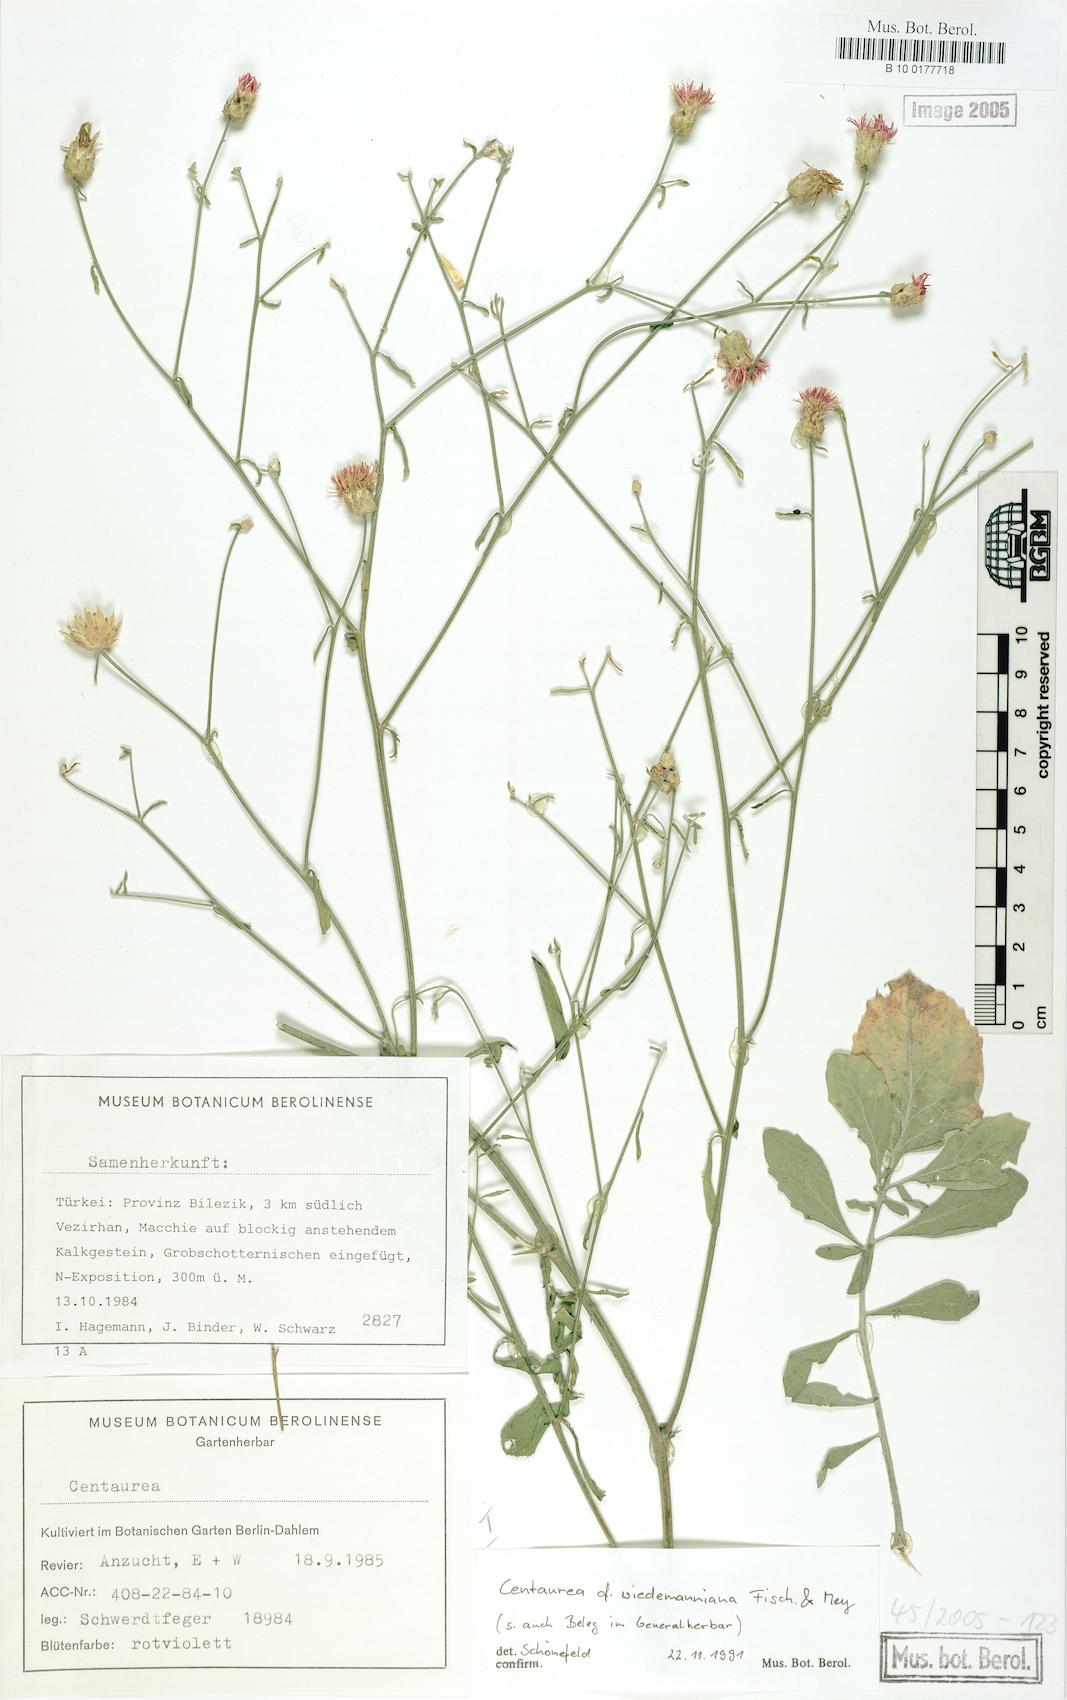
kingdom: Plantae
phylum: Tracheophyta
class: Magnoliopsida
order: Asterales
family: Asteraceae
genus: Centaurea
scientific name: Centaurea wiedemanniana
